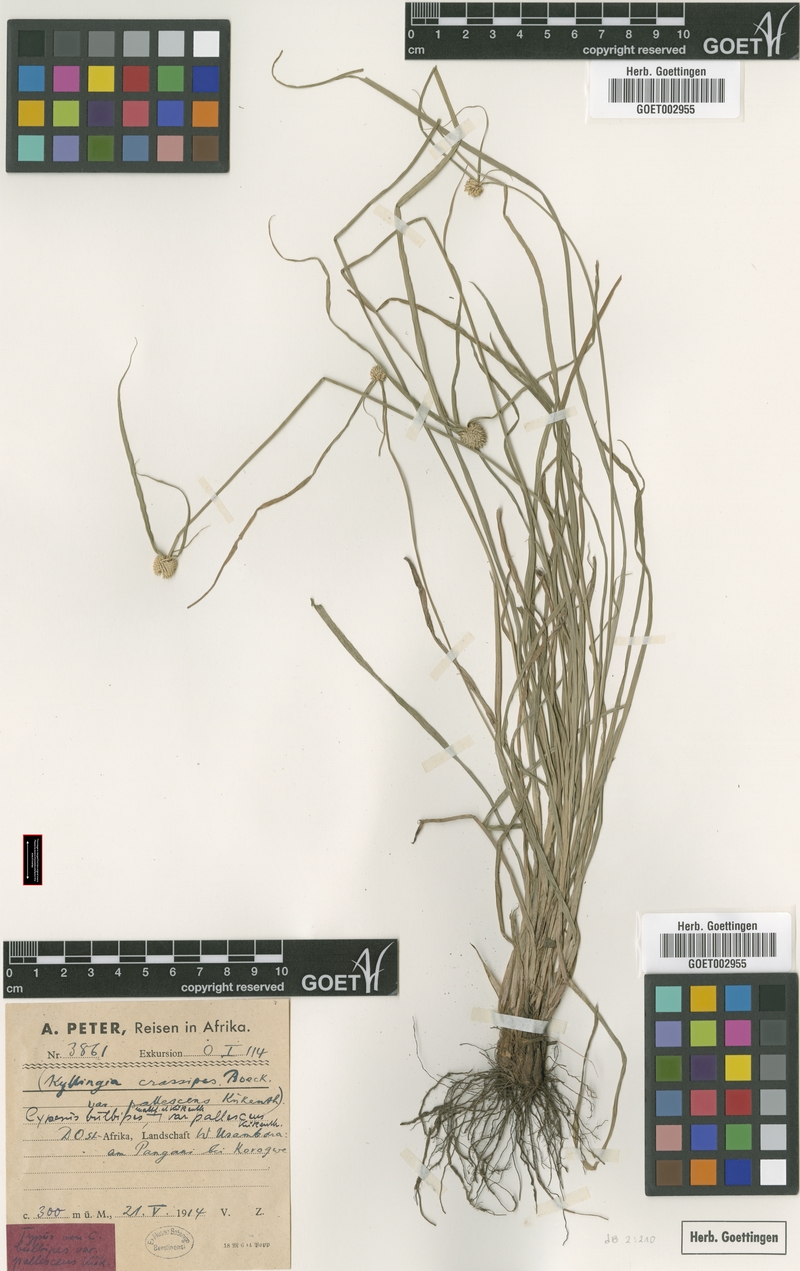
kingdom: Plantae
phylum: Tracheophyta
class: Liliopsida
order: Poales
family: Cyperaceae
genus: Cyperus
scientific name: Cyperus bulbipes
